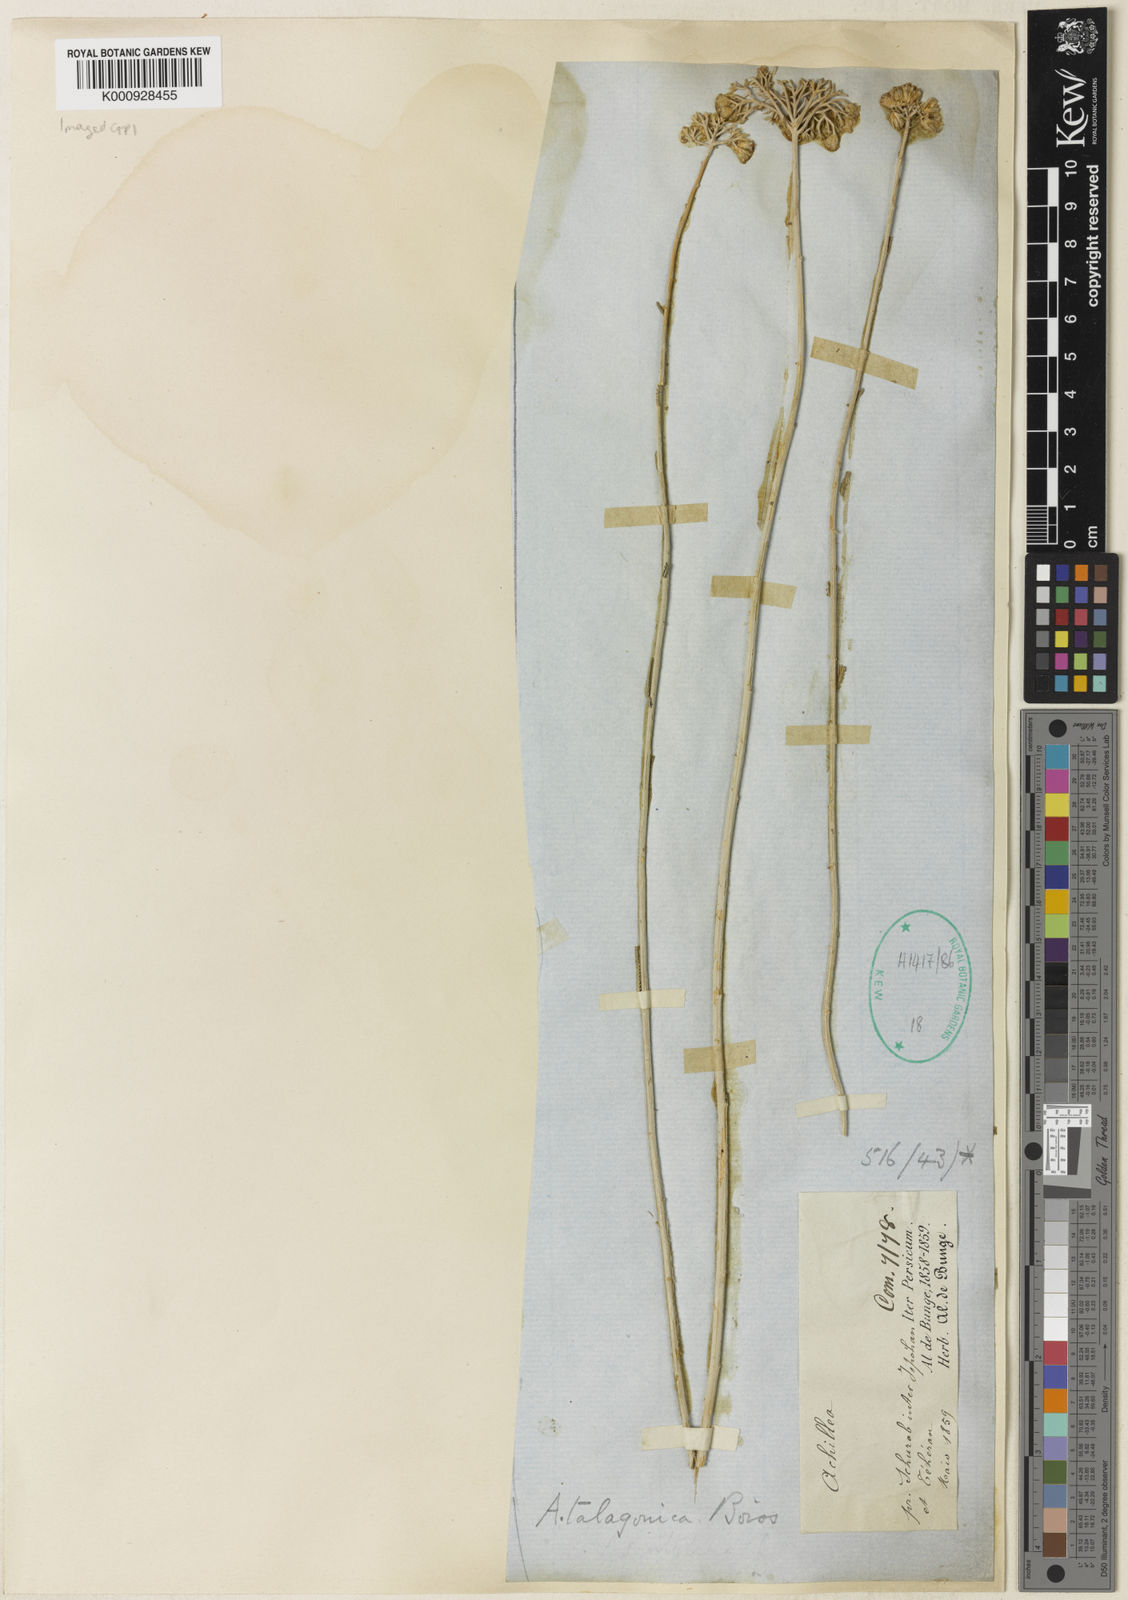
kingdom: Plantae
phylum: Tracheophyta
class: Magnoliopsida
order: Asterales
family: Asteraceae
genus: Achillea
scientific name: Achillea talagonica
